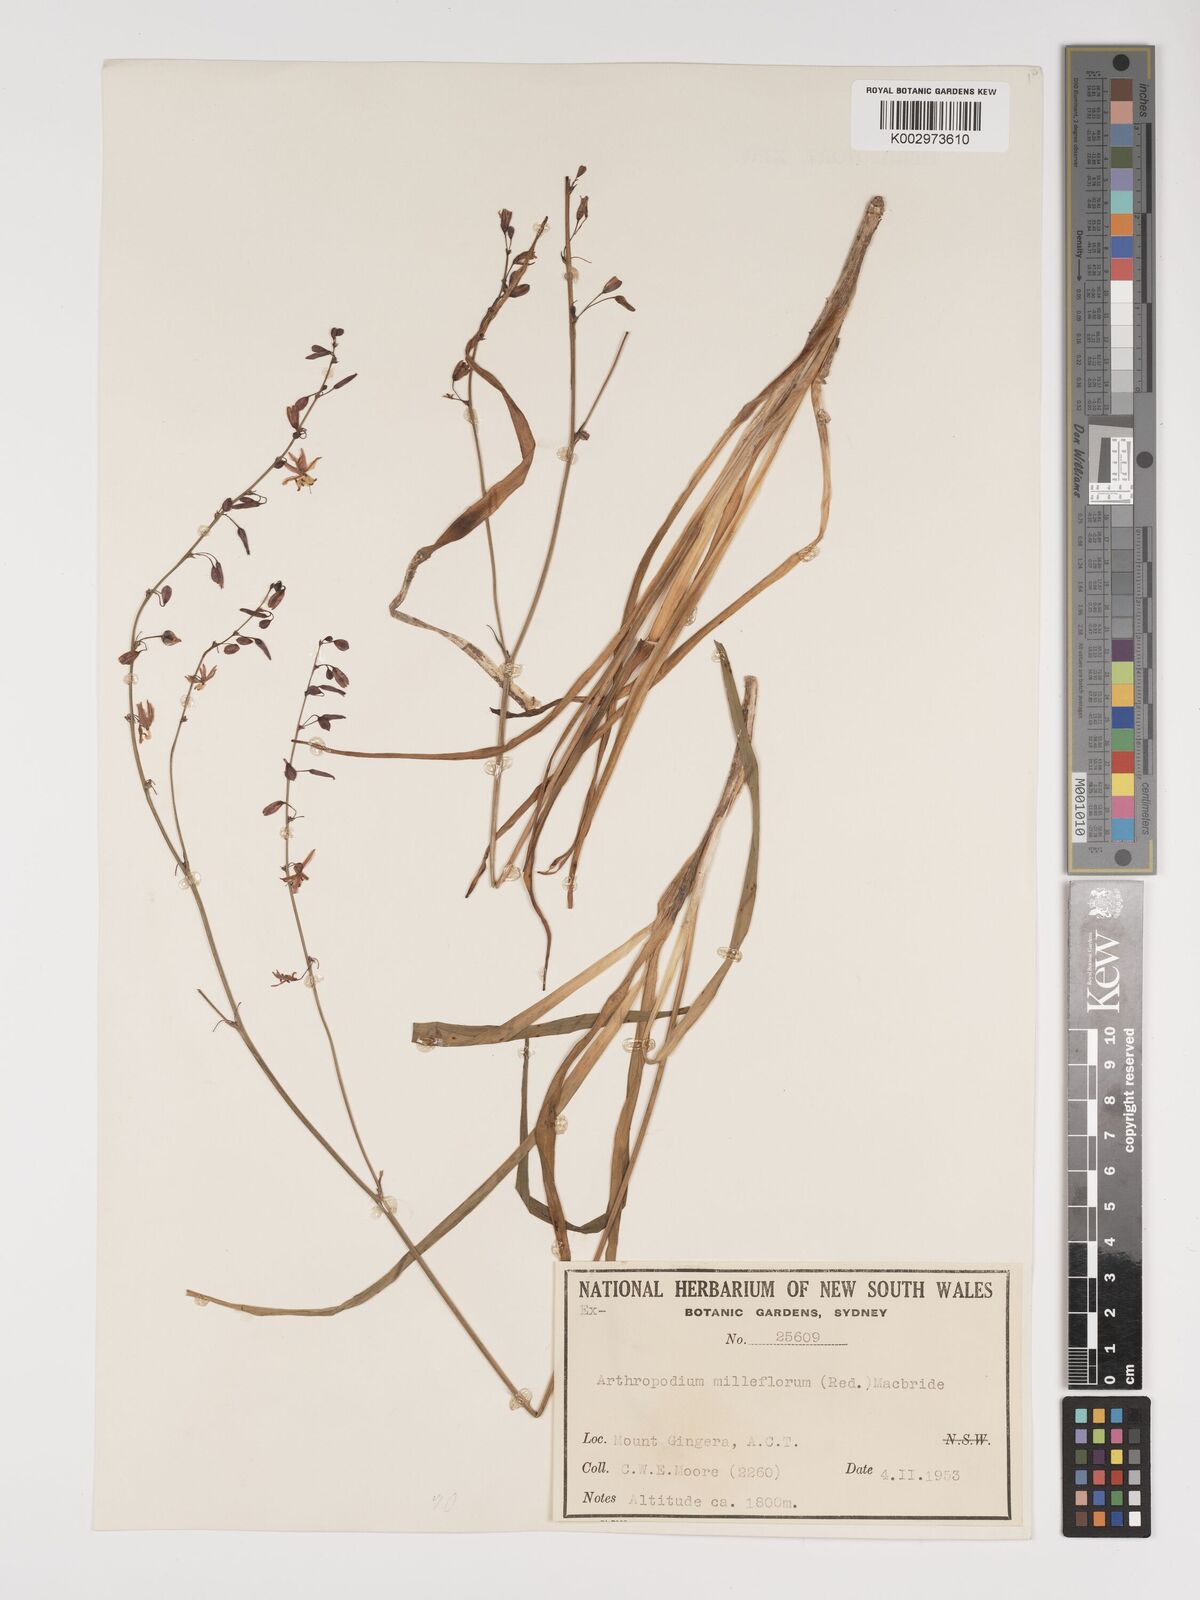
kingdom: Plantae
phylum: Tracheophyta
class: Liliopsida
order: Asparagales
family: Asparagaceae
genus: Arthropodium
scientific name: Arthropodium milleflorum
